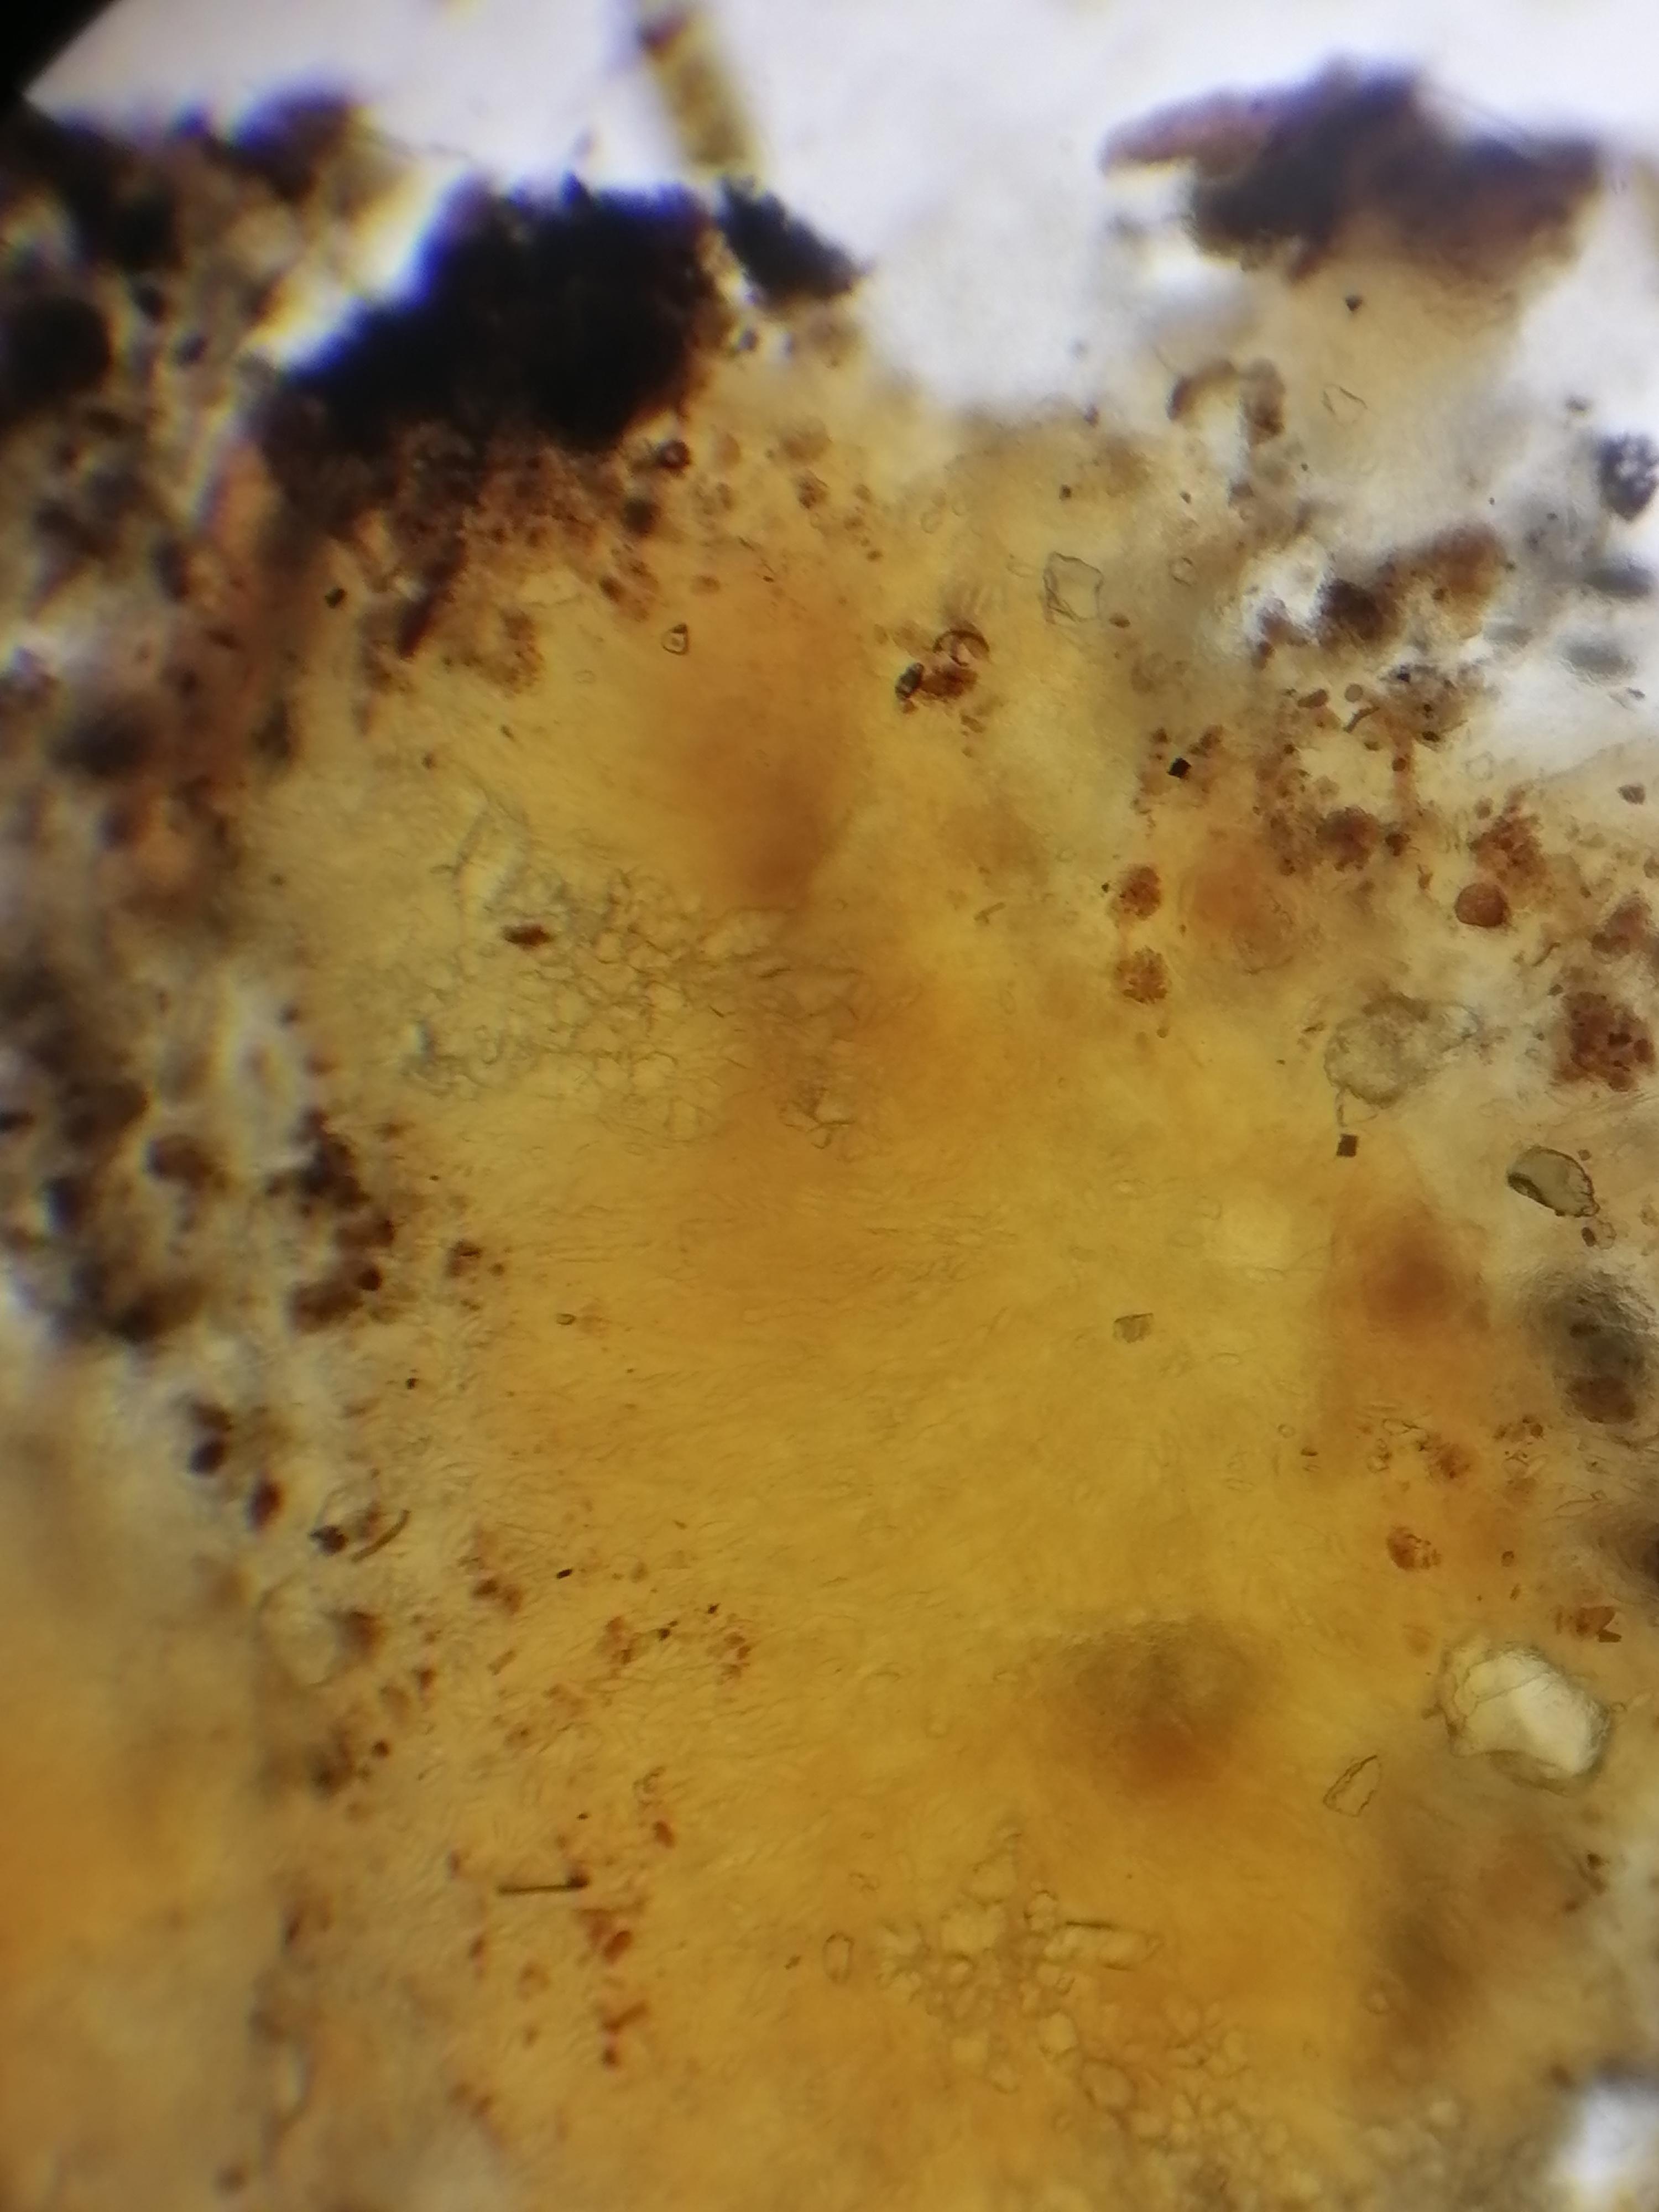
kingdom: Fungi
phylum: Ascomycota
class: Pezizomycetes
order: Pezizales
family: Pezizaceae
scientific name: Pezizaceae
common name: bægersvampfamilien
